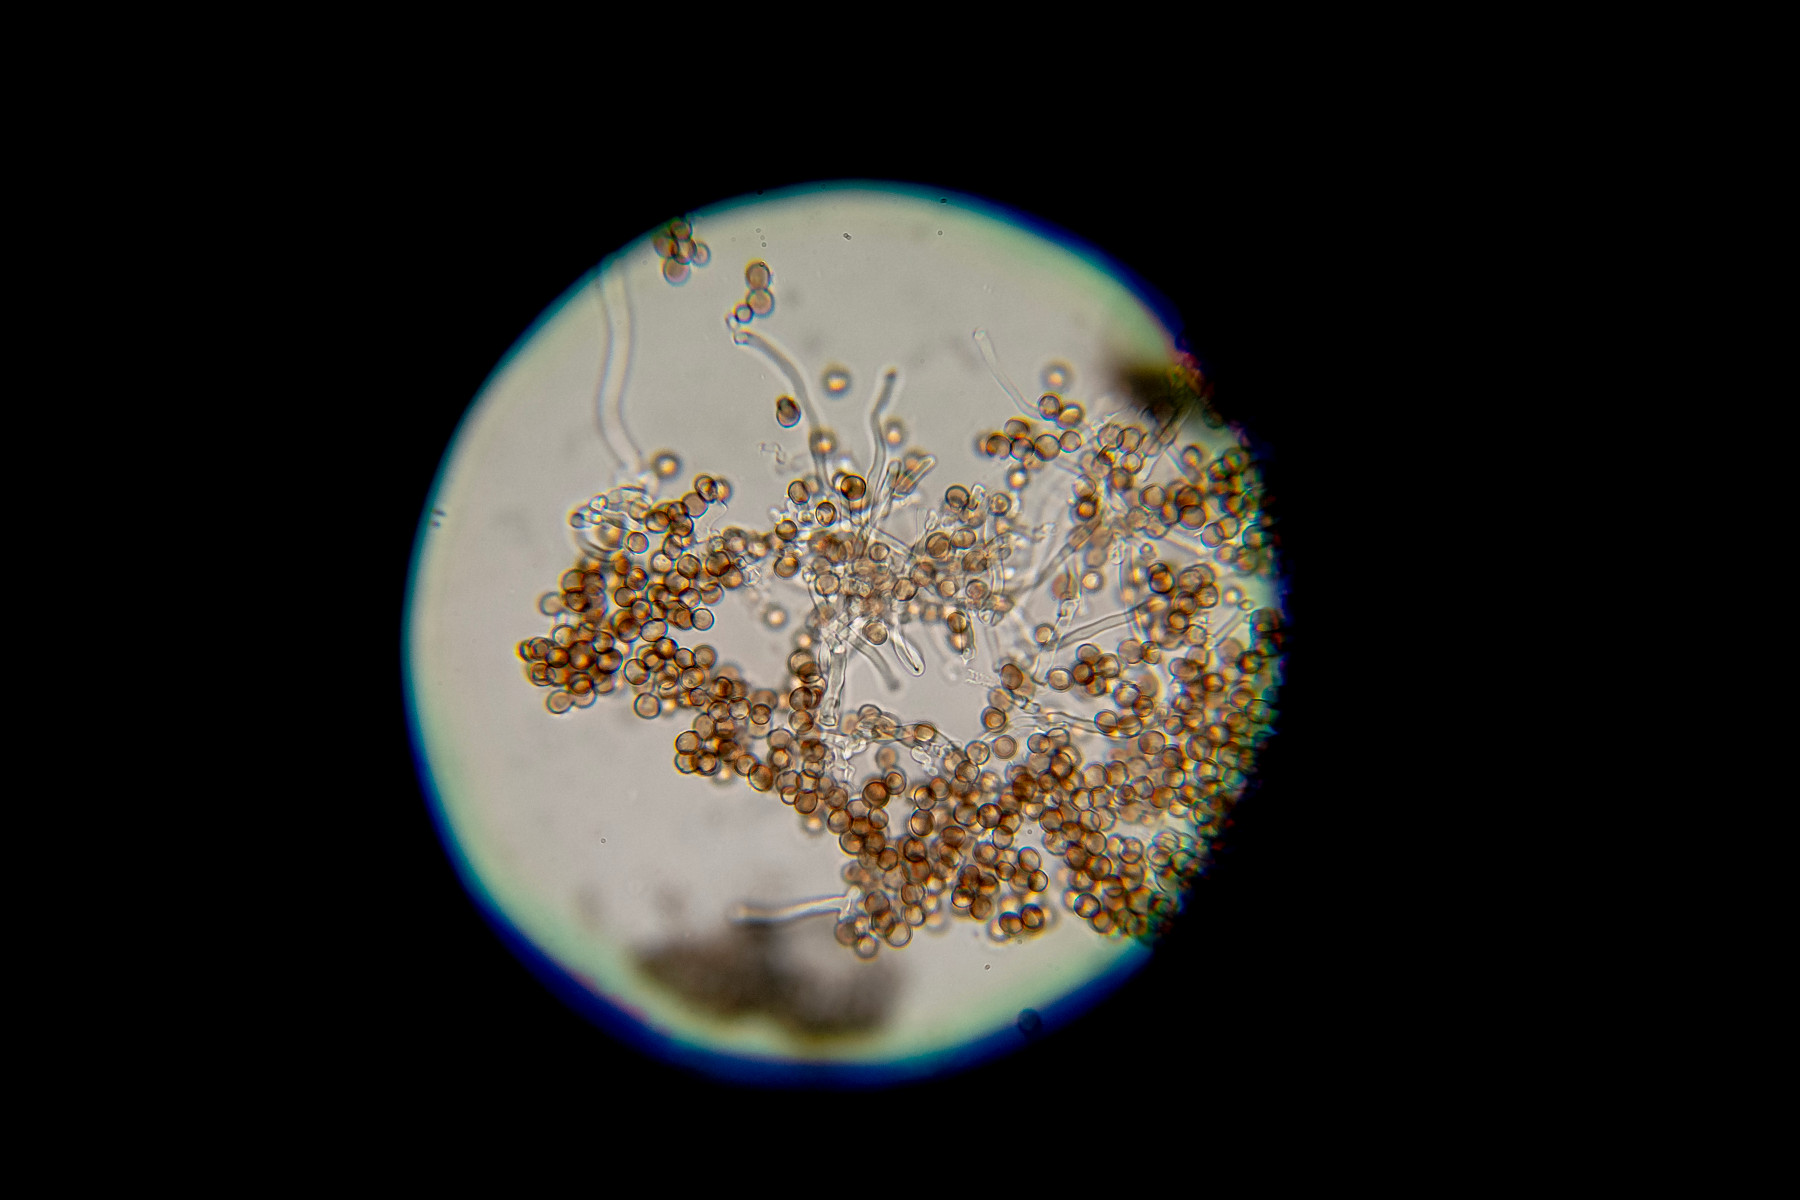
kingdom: Fungi
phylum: Basidiomycota
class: Atractiellomycetes
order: Atractiellales
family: Phleogenaceae
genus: Phleogena
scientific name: Phleogena faginea
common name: pudderkølle
